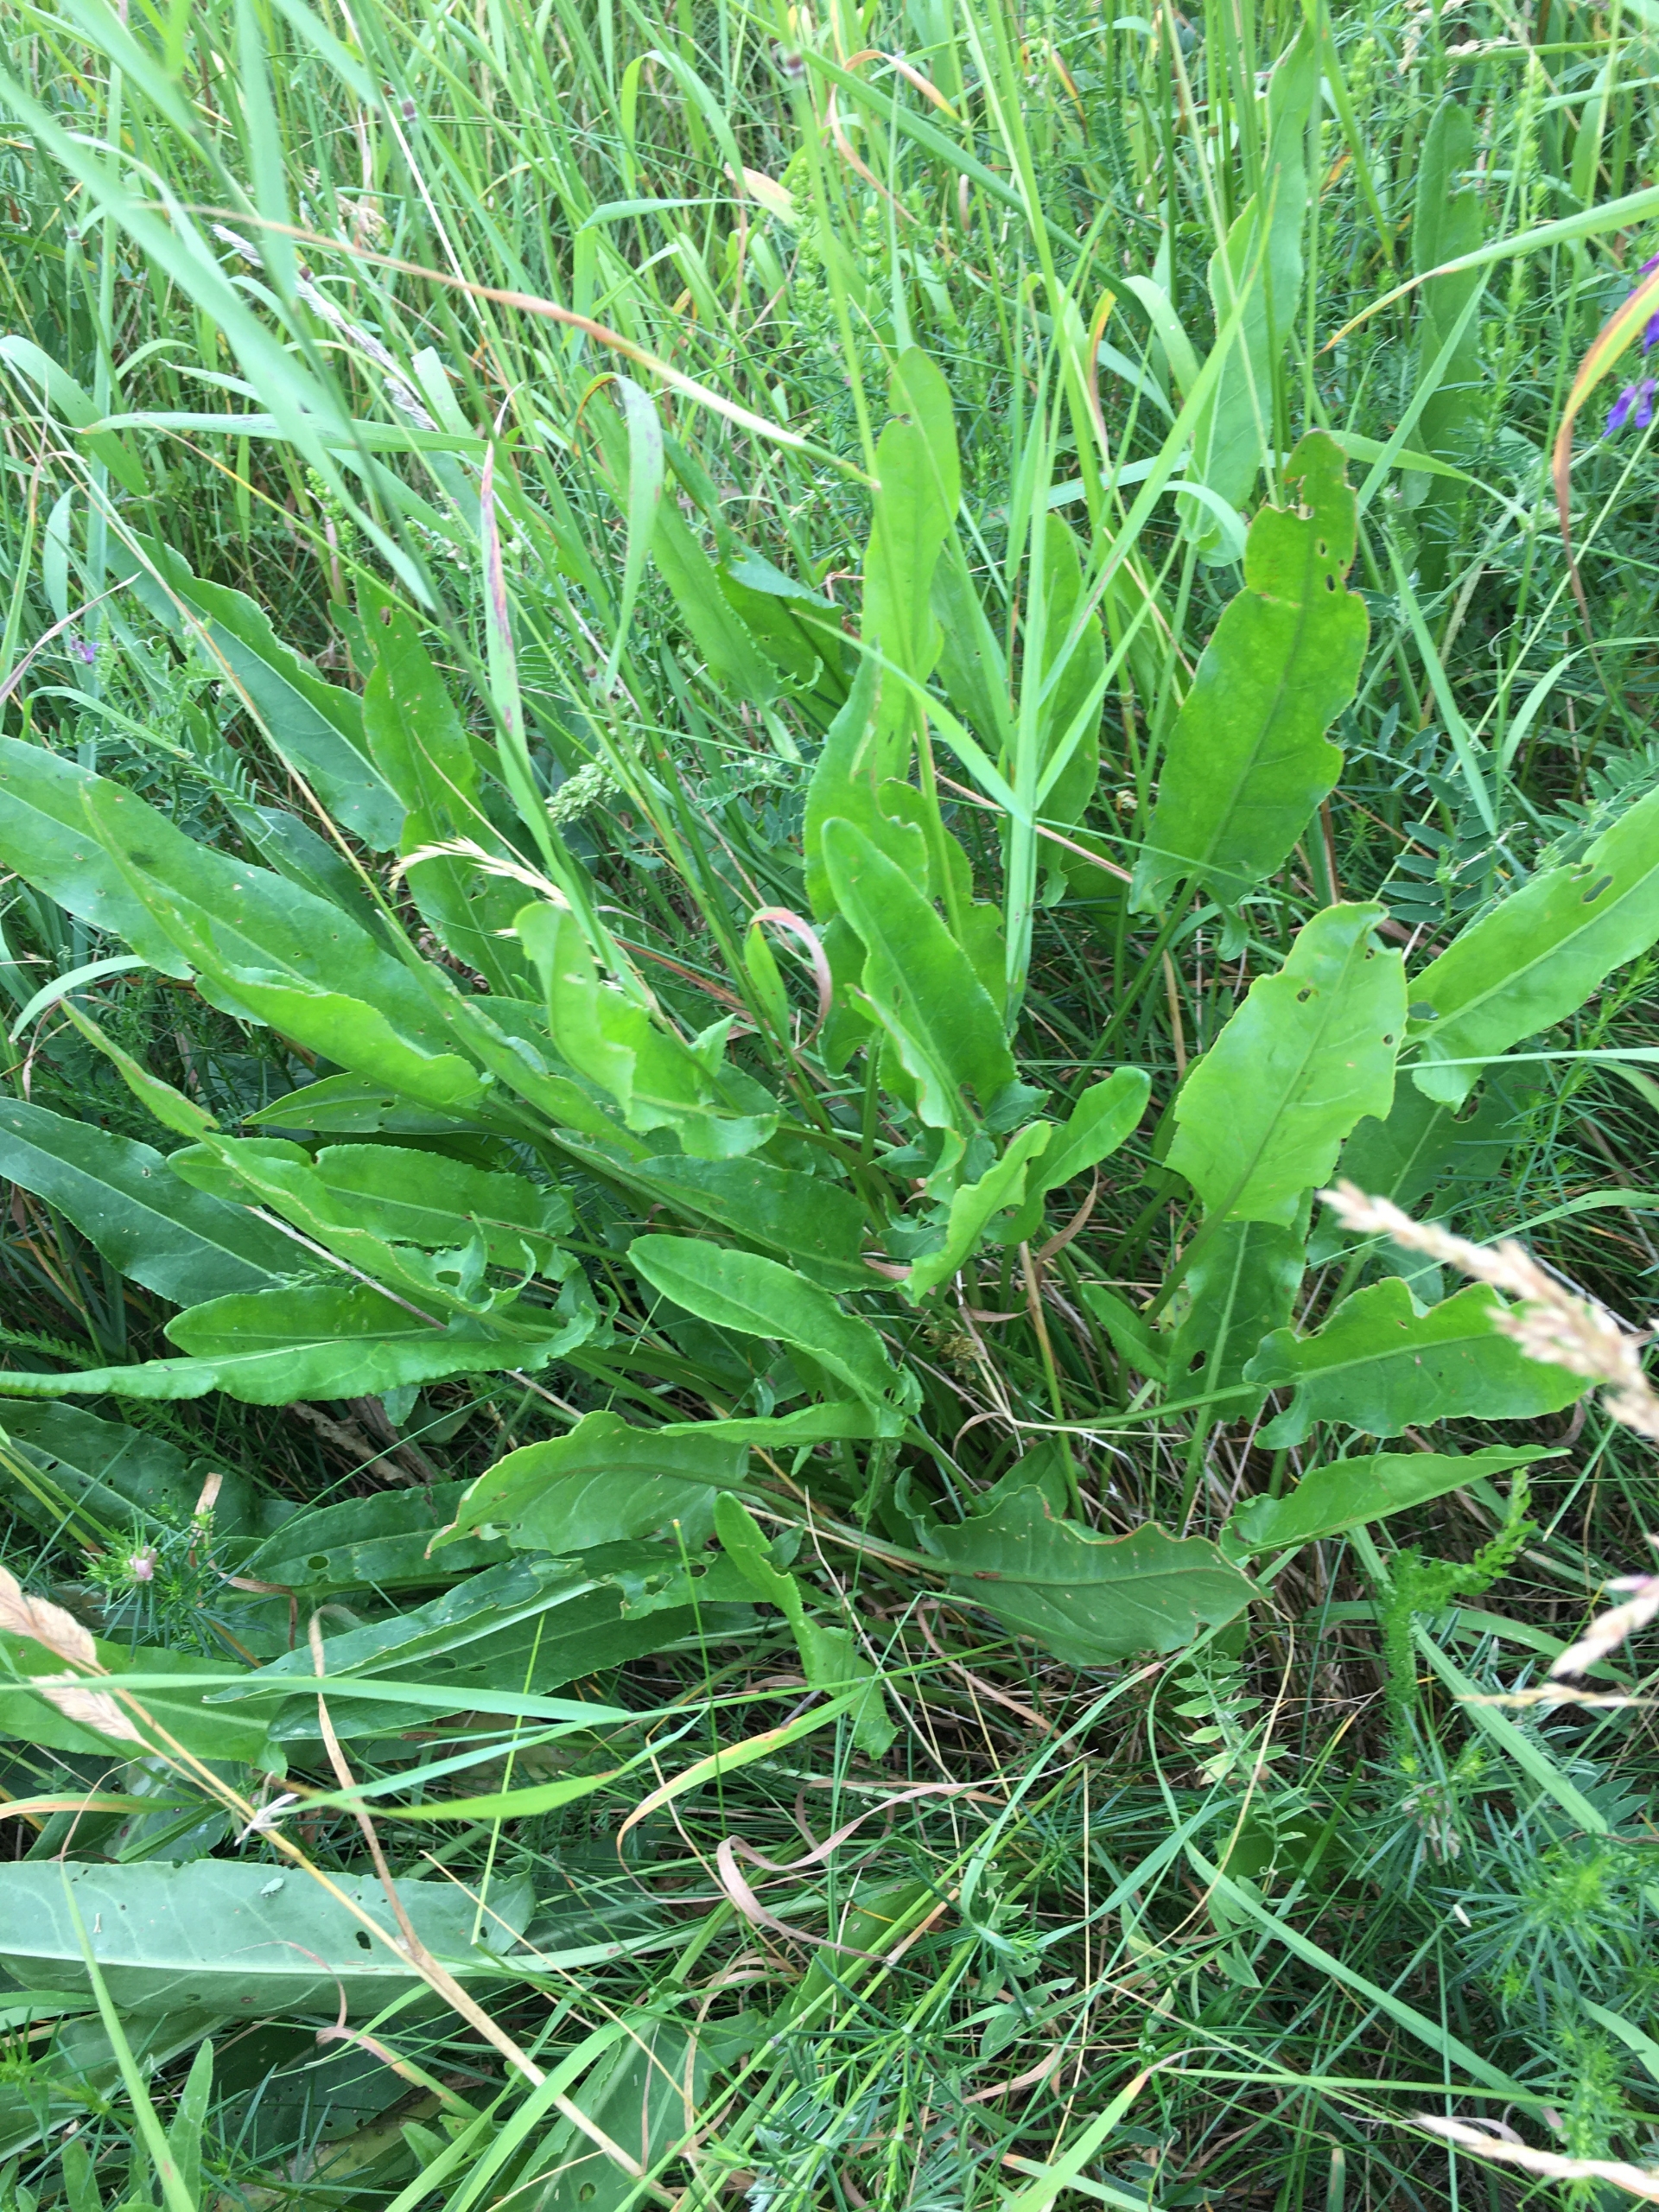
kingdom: Plantae
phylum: Tracheophyta
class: Magnoliopsida
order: Caryophyllales
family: Polygonaceae
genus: Rumex
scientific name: Rumex thyrsiflorus
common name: Dusk-syre
